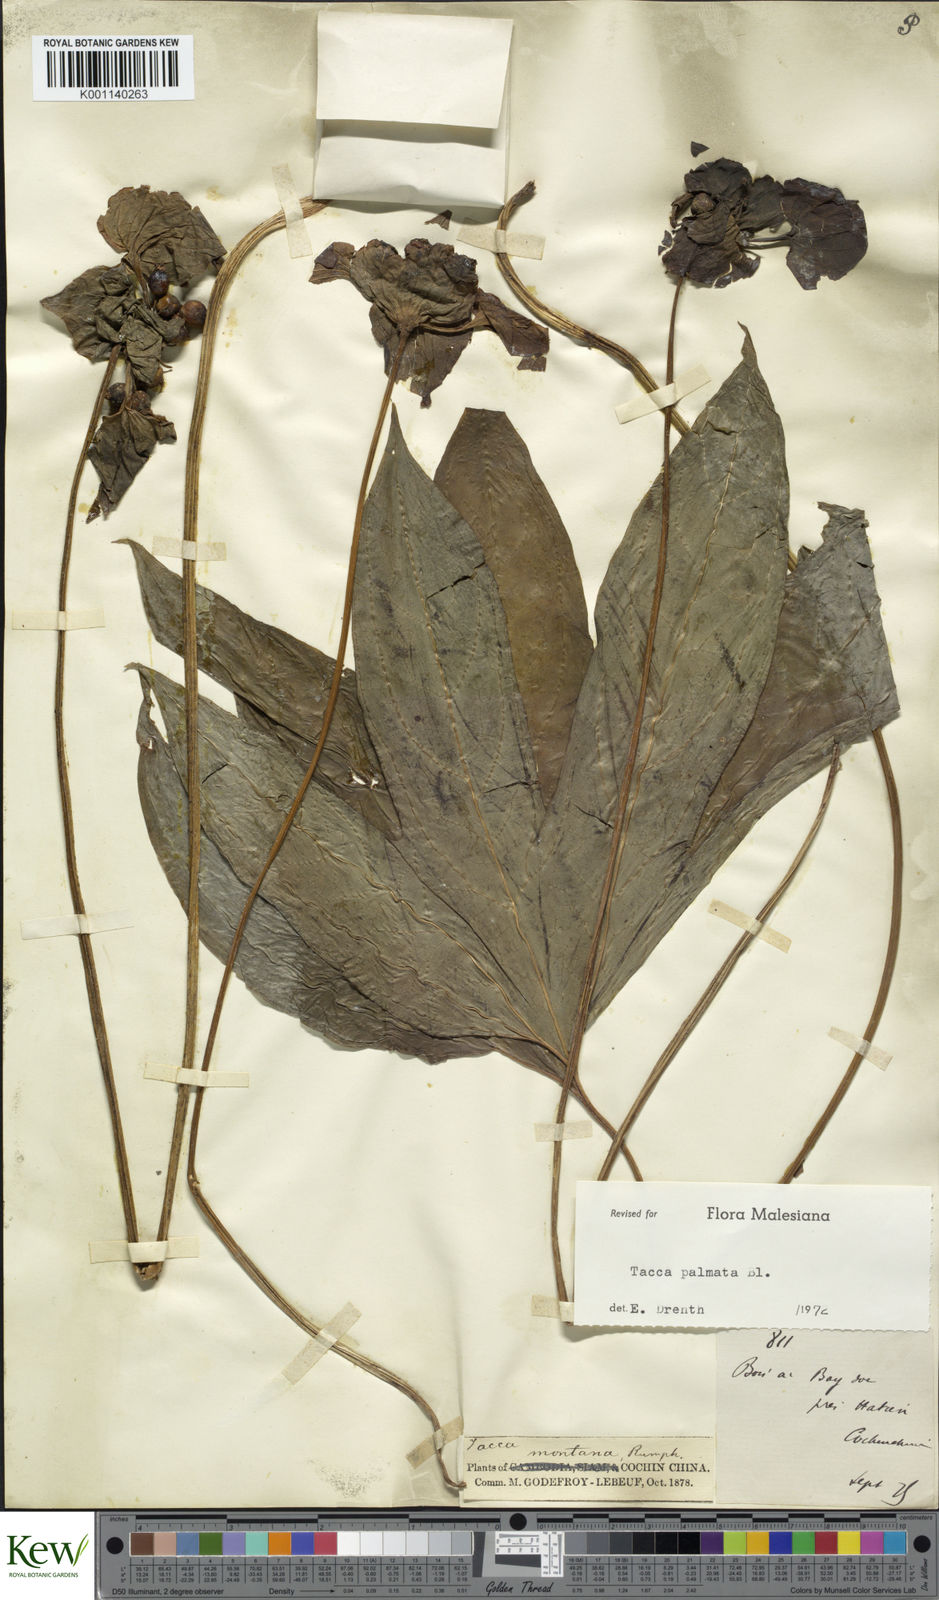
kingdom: Plantae
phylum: Tracheophyta
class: Liliopsida
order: Dioscoreales
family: Dioscoreaceae
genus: Tacca
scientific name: Tacca palmata
